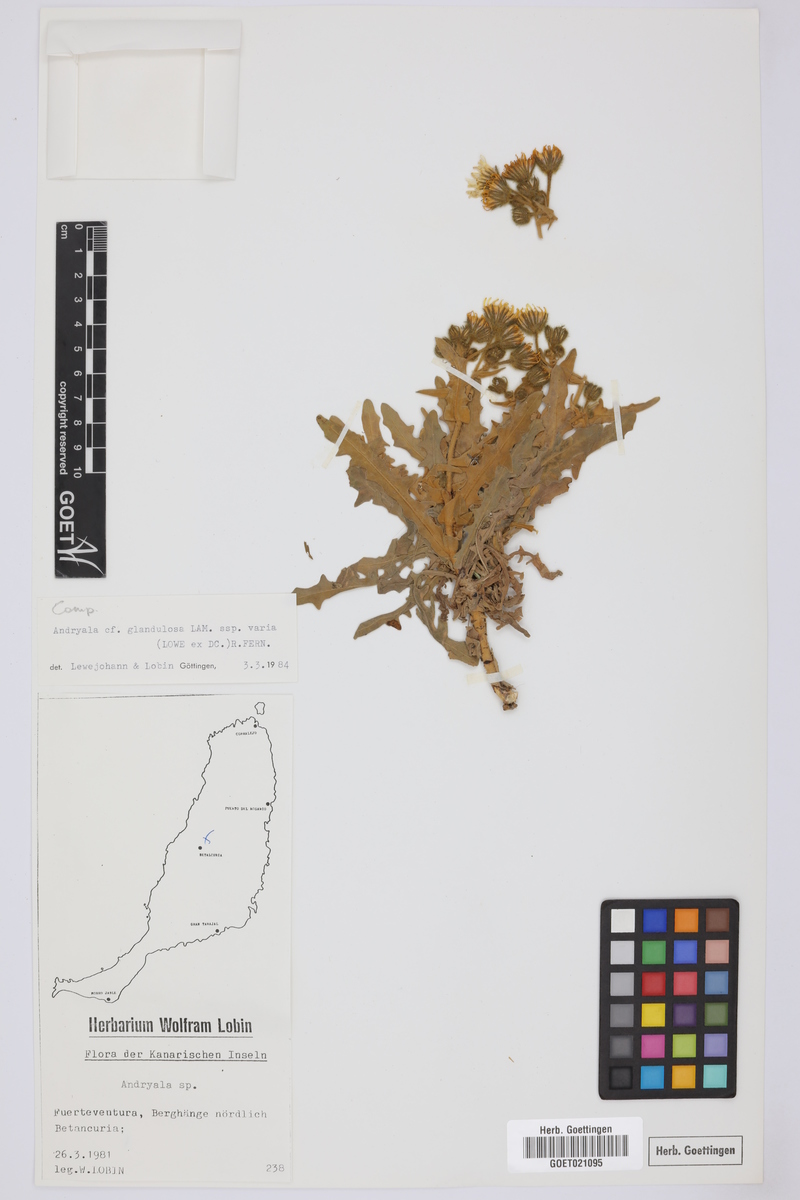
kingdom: Plantae
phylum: Tracheophyta
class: Magnoliopsida
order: Asterales
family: Asteraceae
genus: Andryala
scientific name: Andryala
